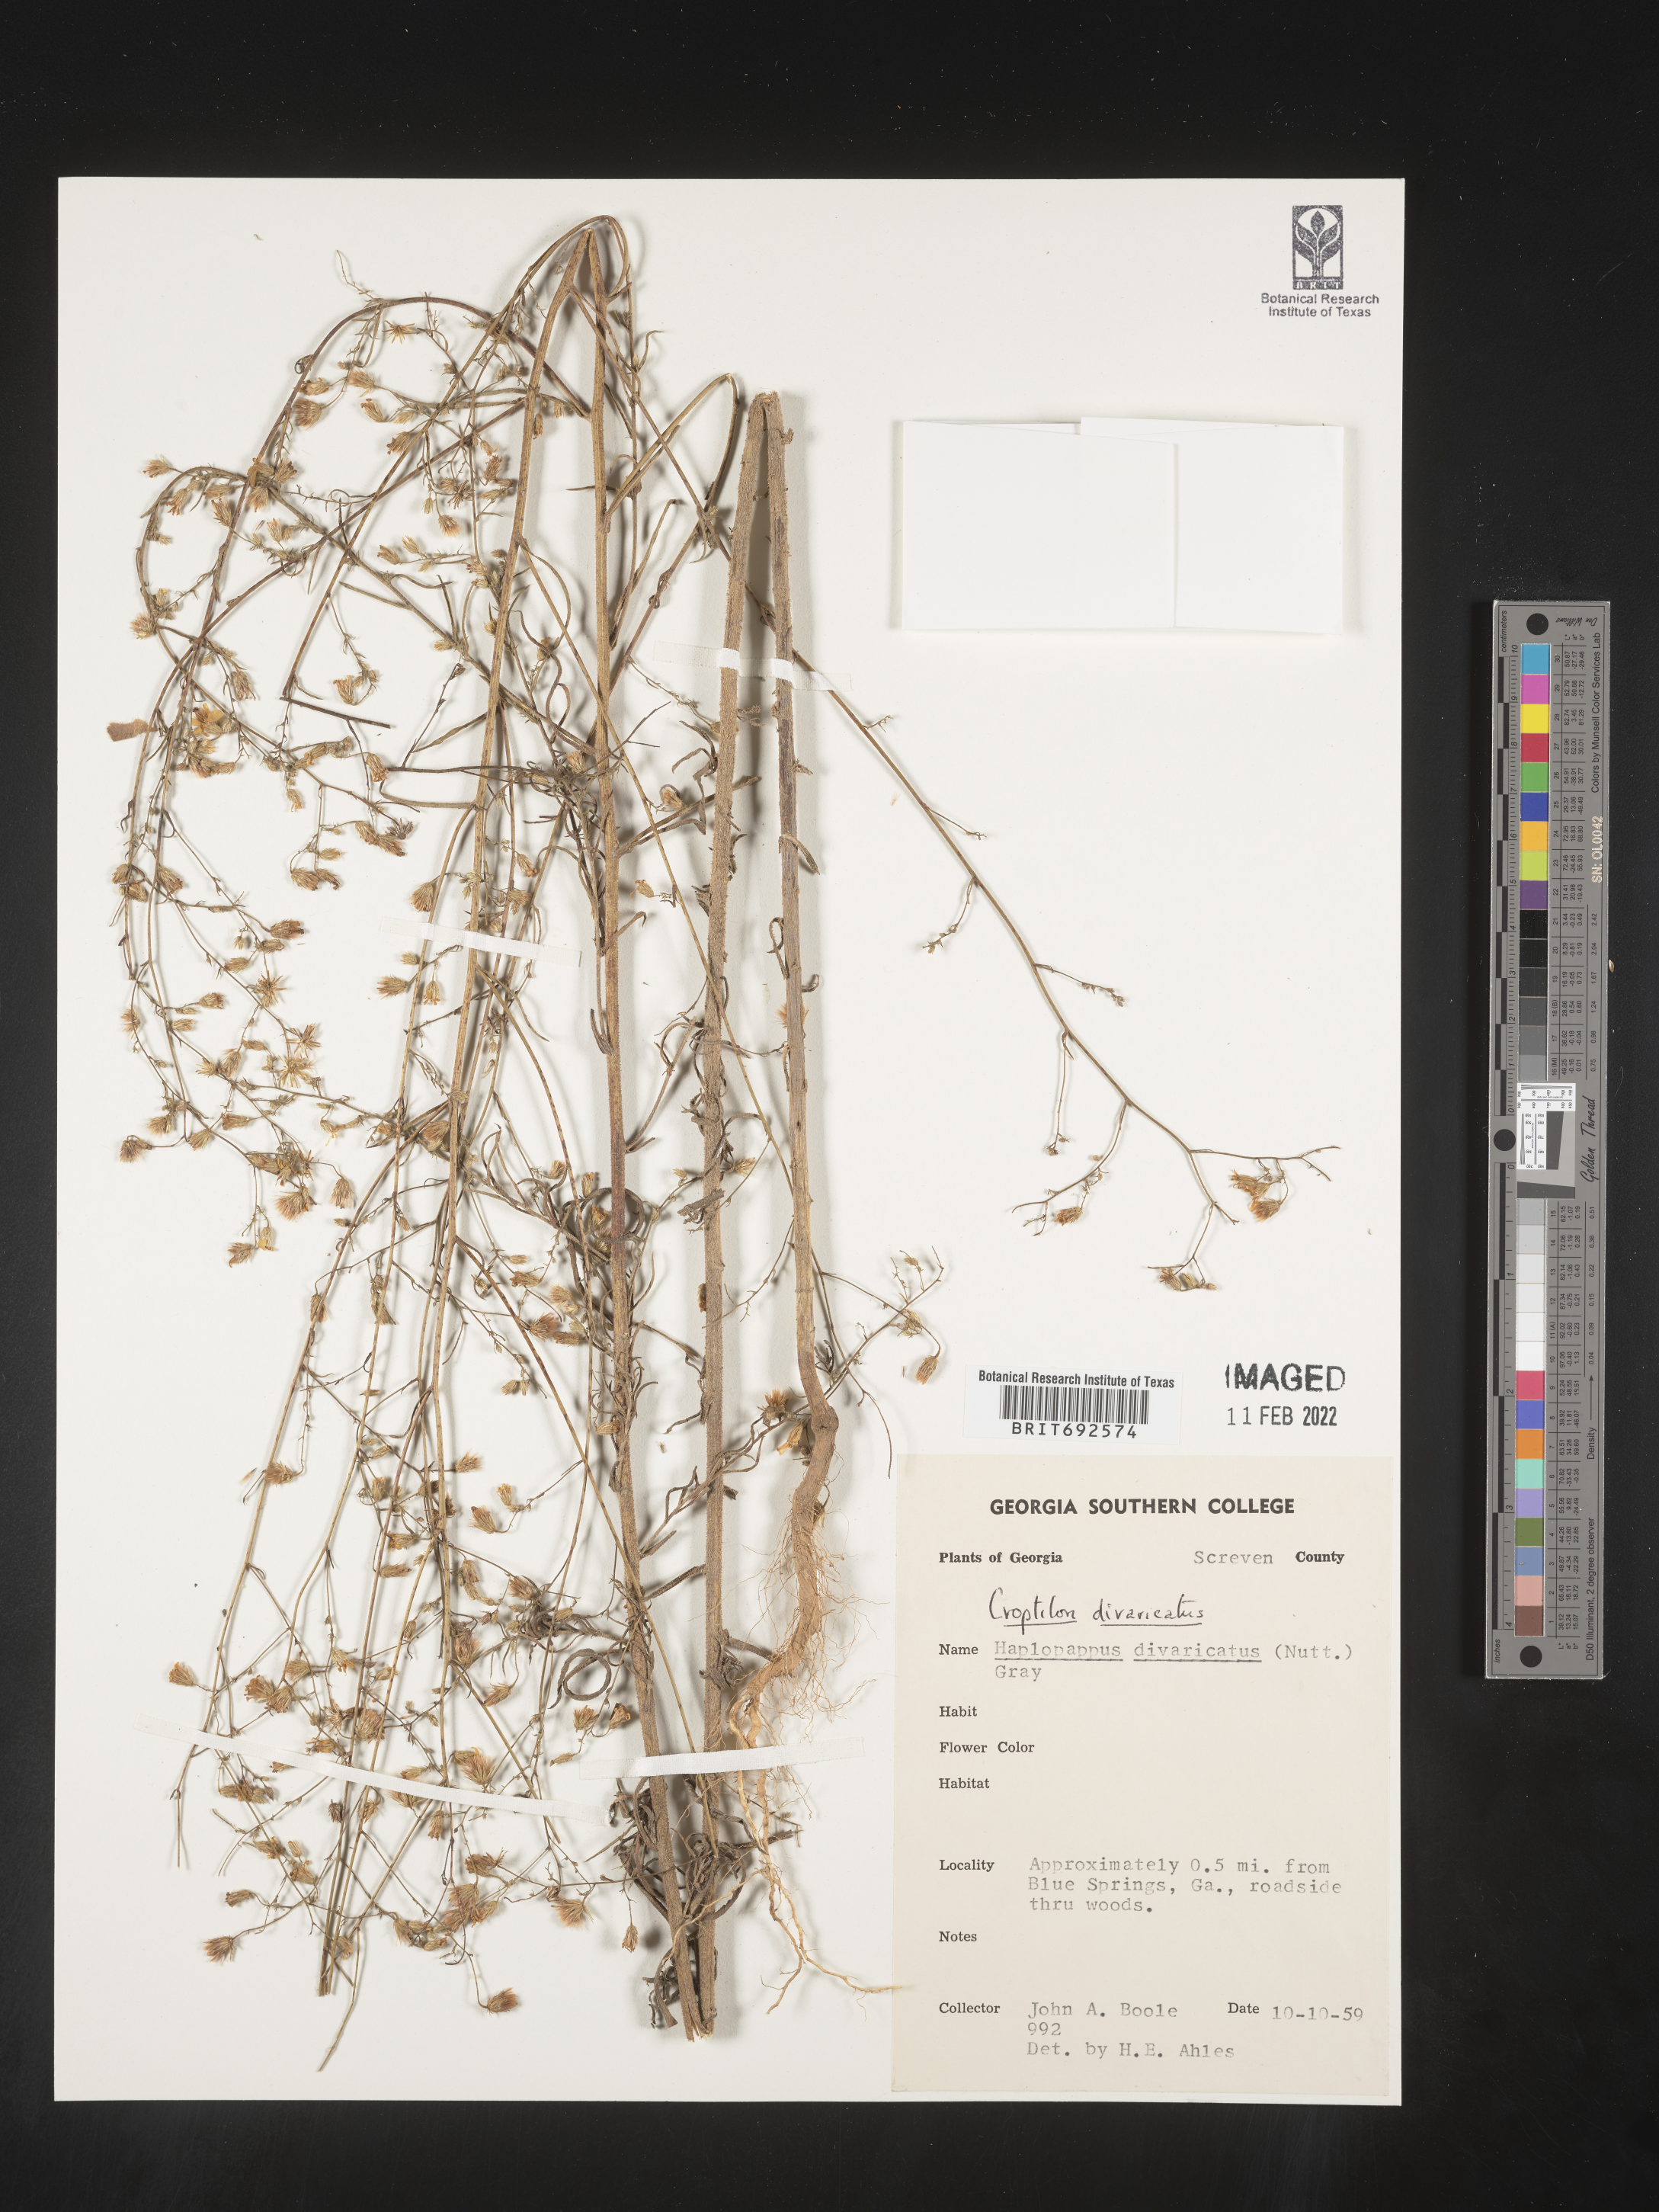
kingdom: Plantae
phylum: Tracheophyta
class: Magnoliopsida
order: Asterales
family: Asteraceae
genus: Croptilon
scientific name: Croptilon divaricatum
